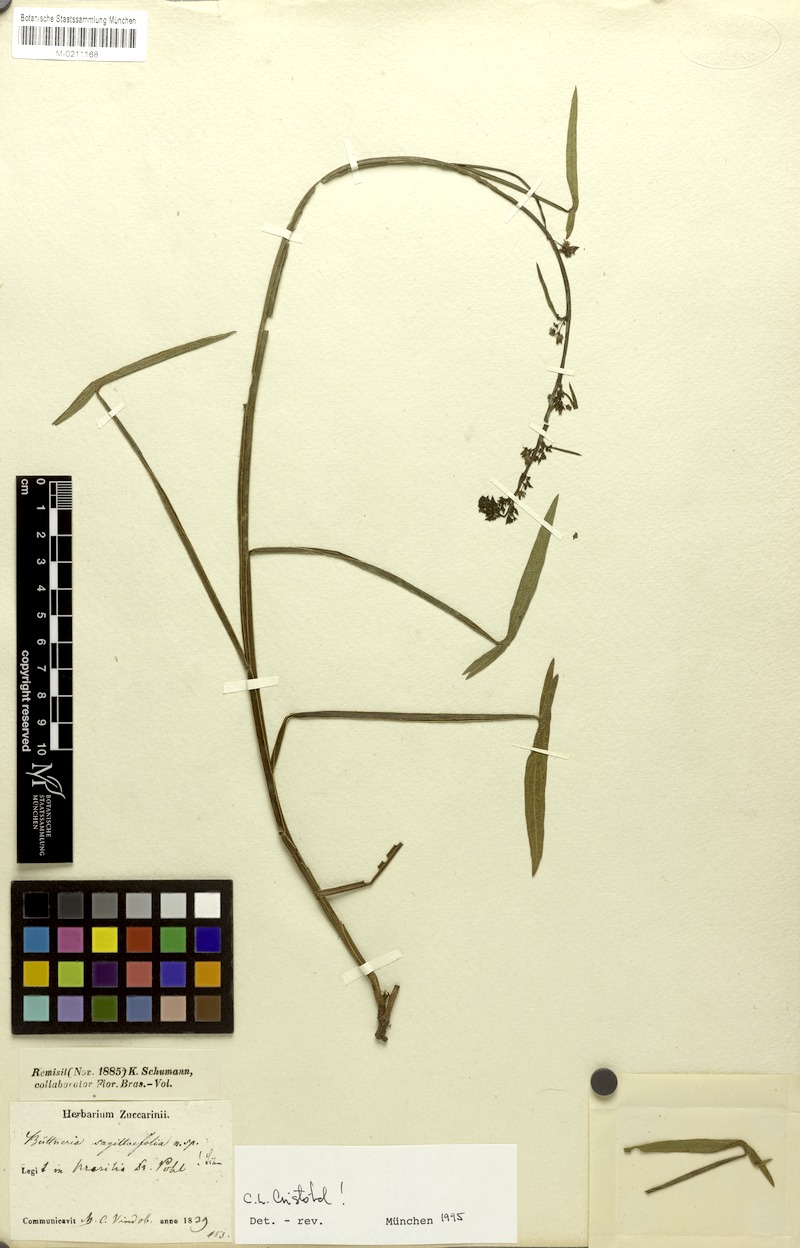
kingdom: Plantae
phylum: Tracheophyta
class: Magnoliopsida
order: Malvales
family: Malvaceae
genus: Byttneria
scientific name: Byttneria sagittifolia
